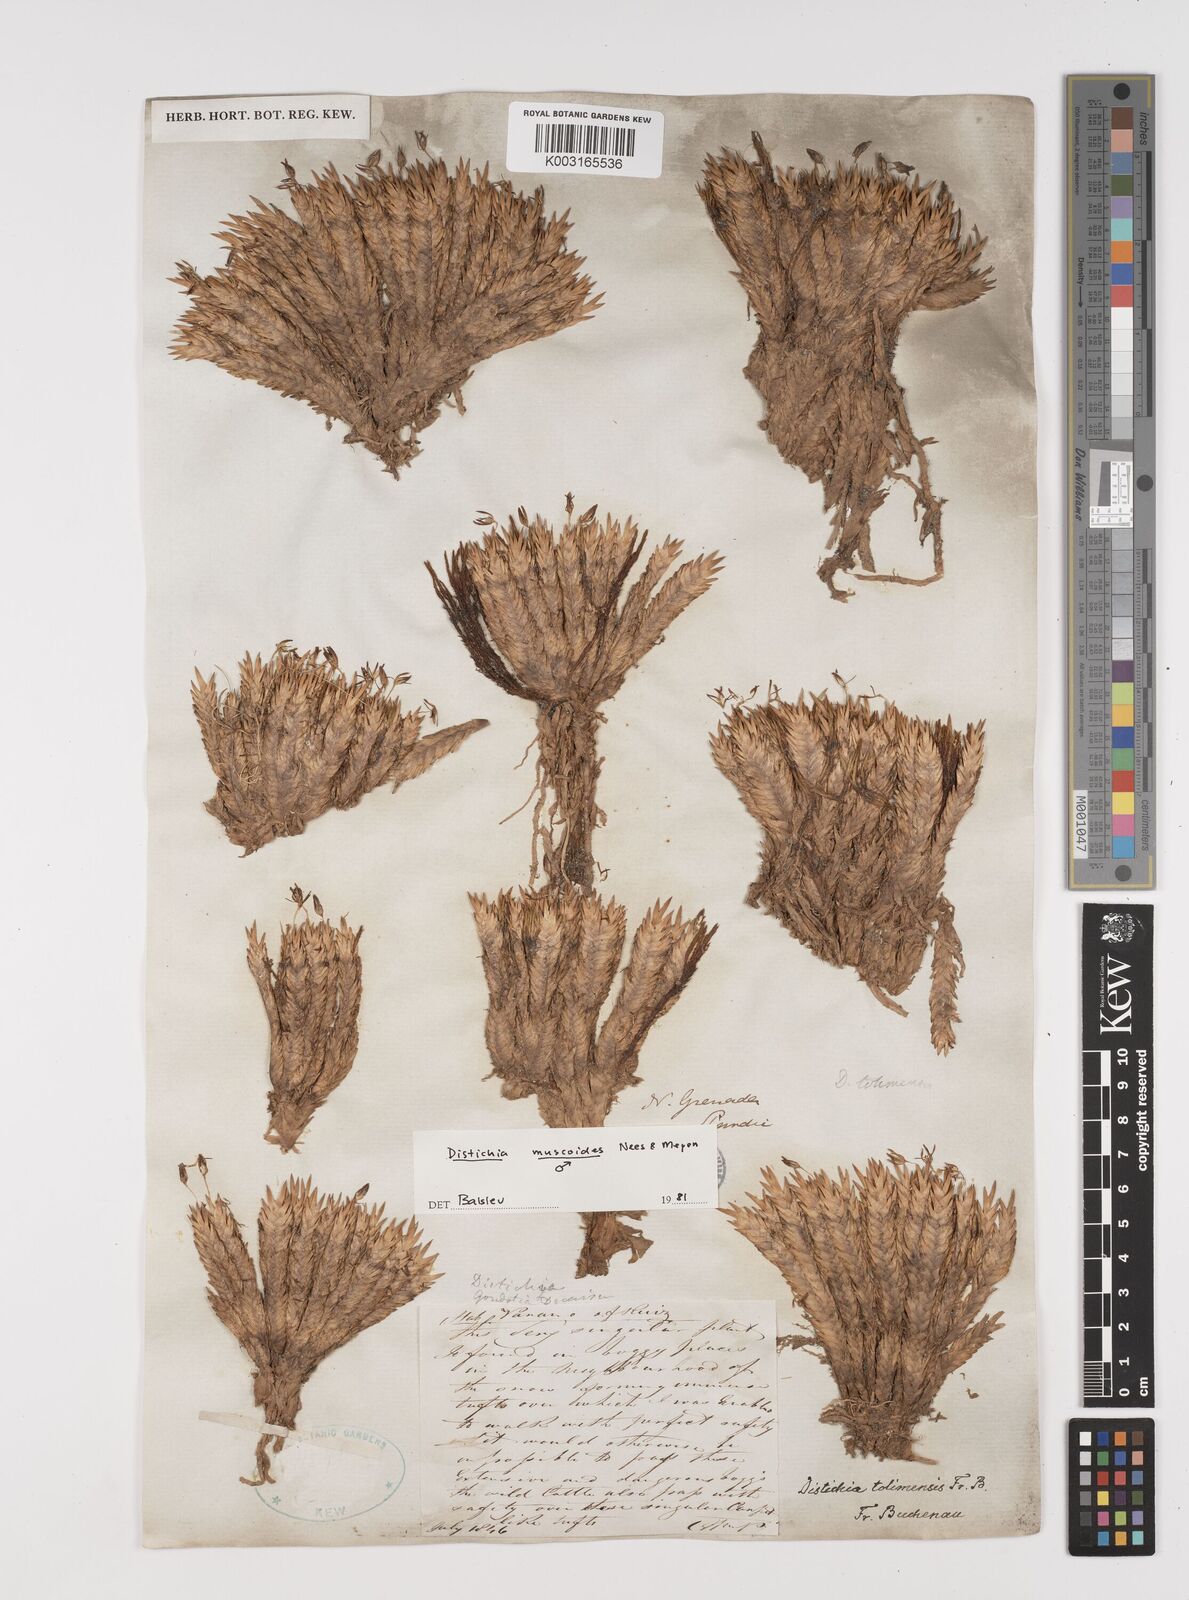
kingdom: Plantae
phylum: Tracheophyta
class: Liliopsida
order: Poales
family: Juncaceae
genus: Distichia
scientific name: Distichia muscoides
